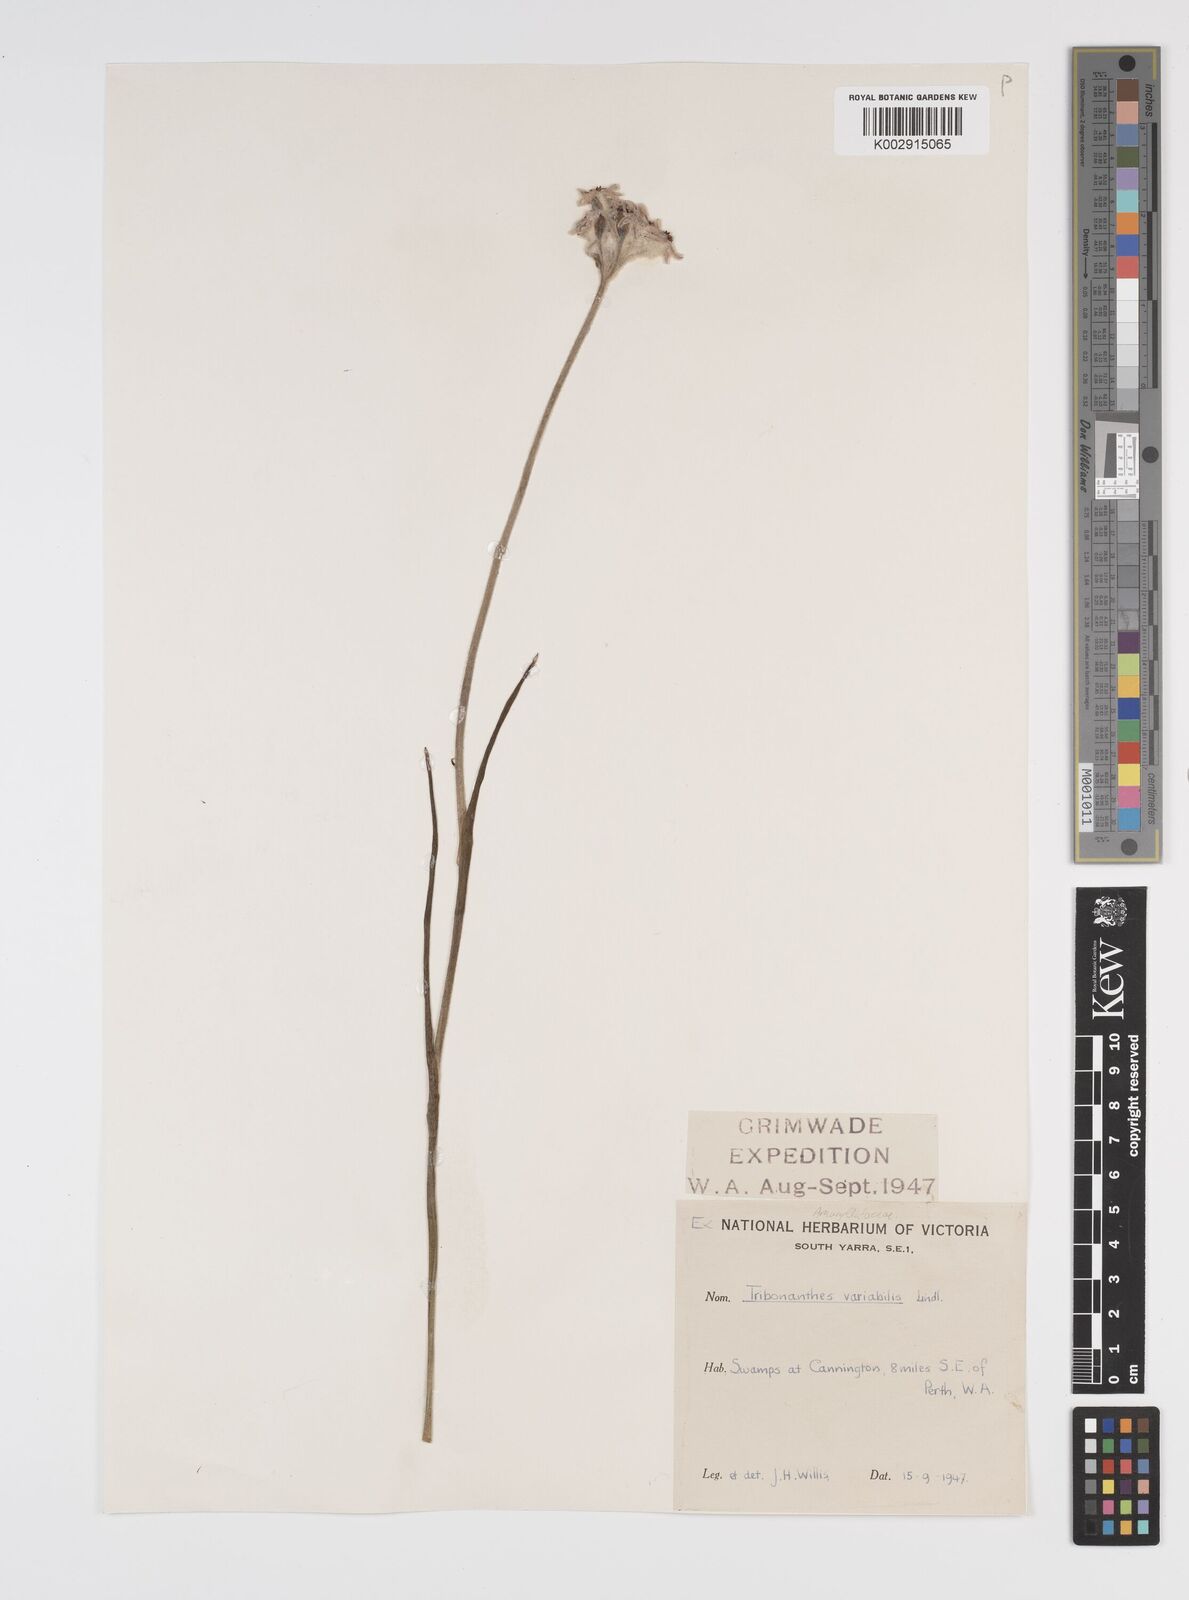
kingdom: Plantae
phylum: Tracheophyta
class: Liliopsida
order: Commelinales
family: Haemodoraceae
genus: Tribonanthes
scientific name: Tribonanthes australis
